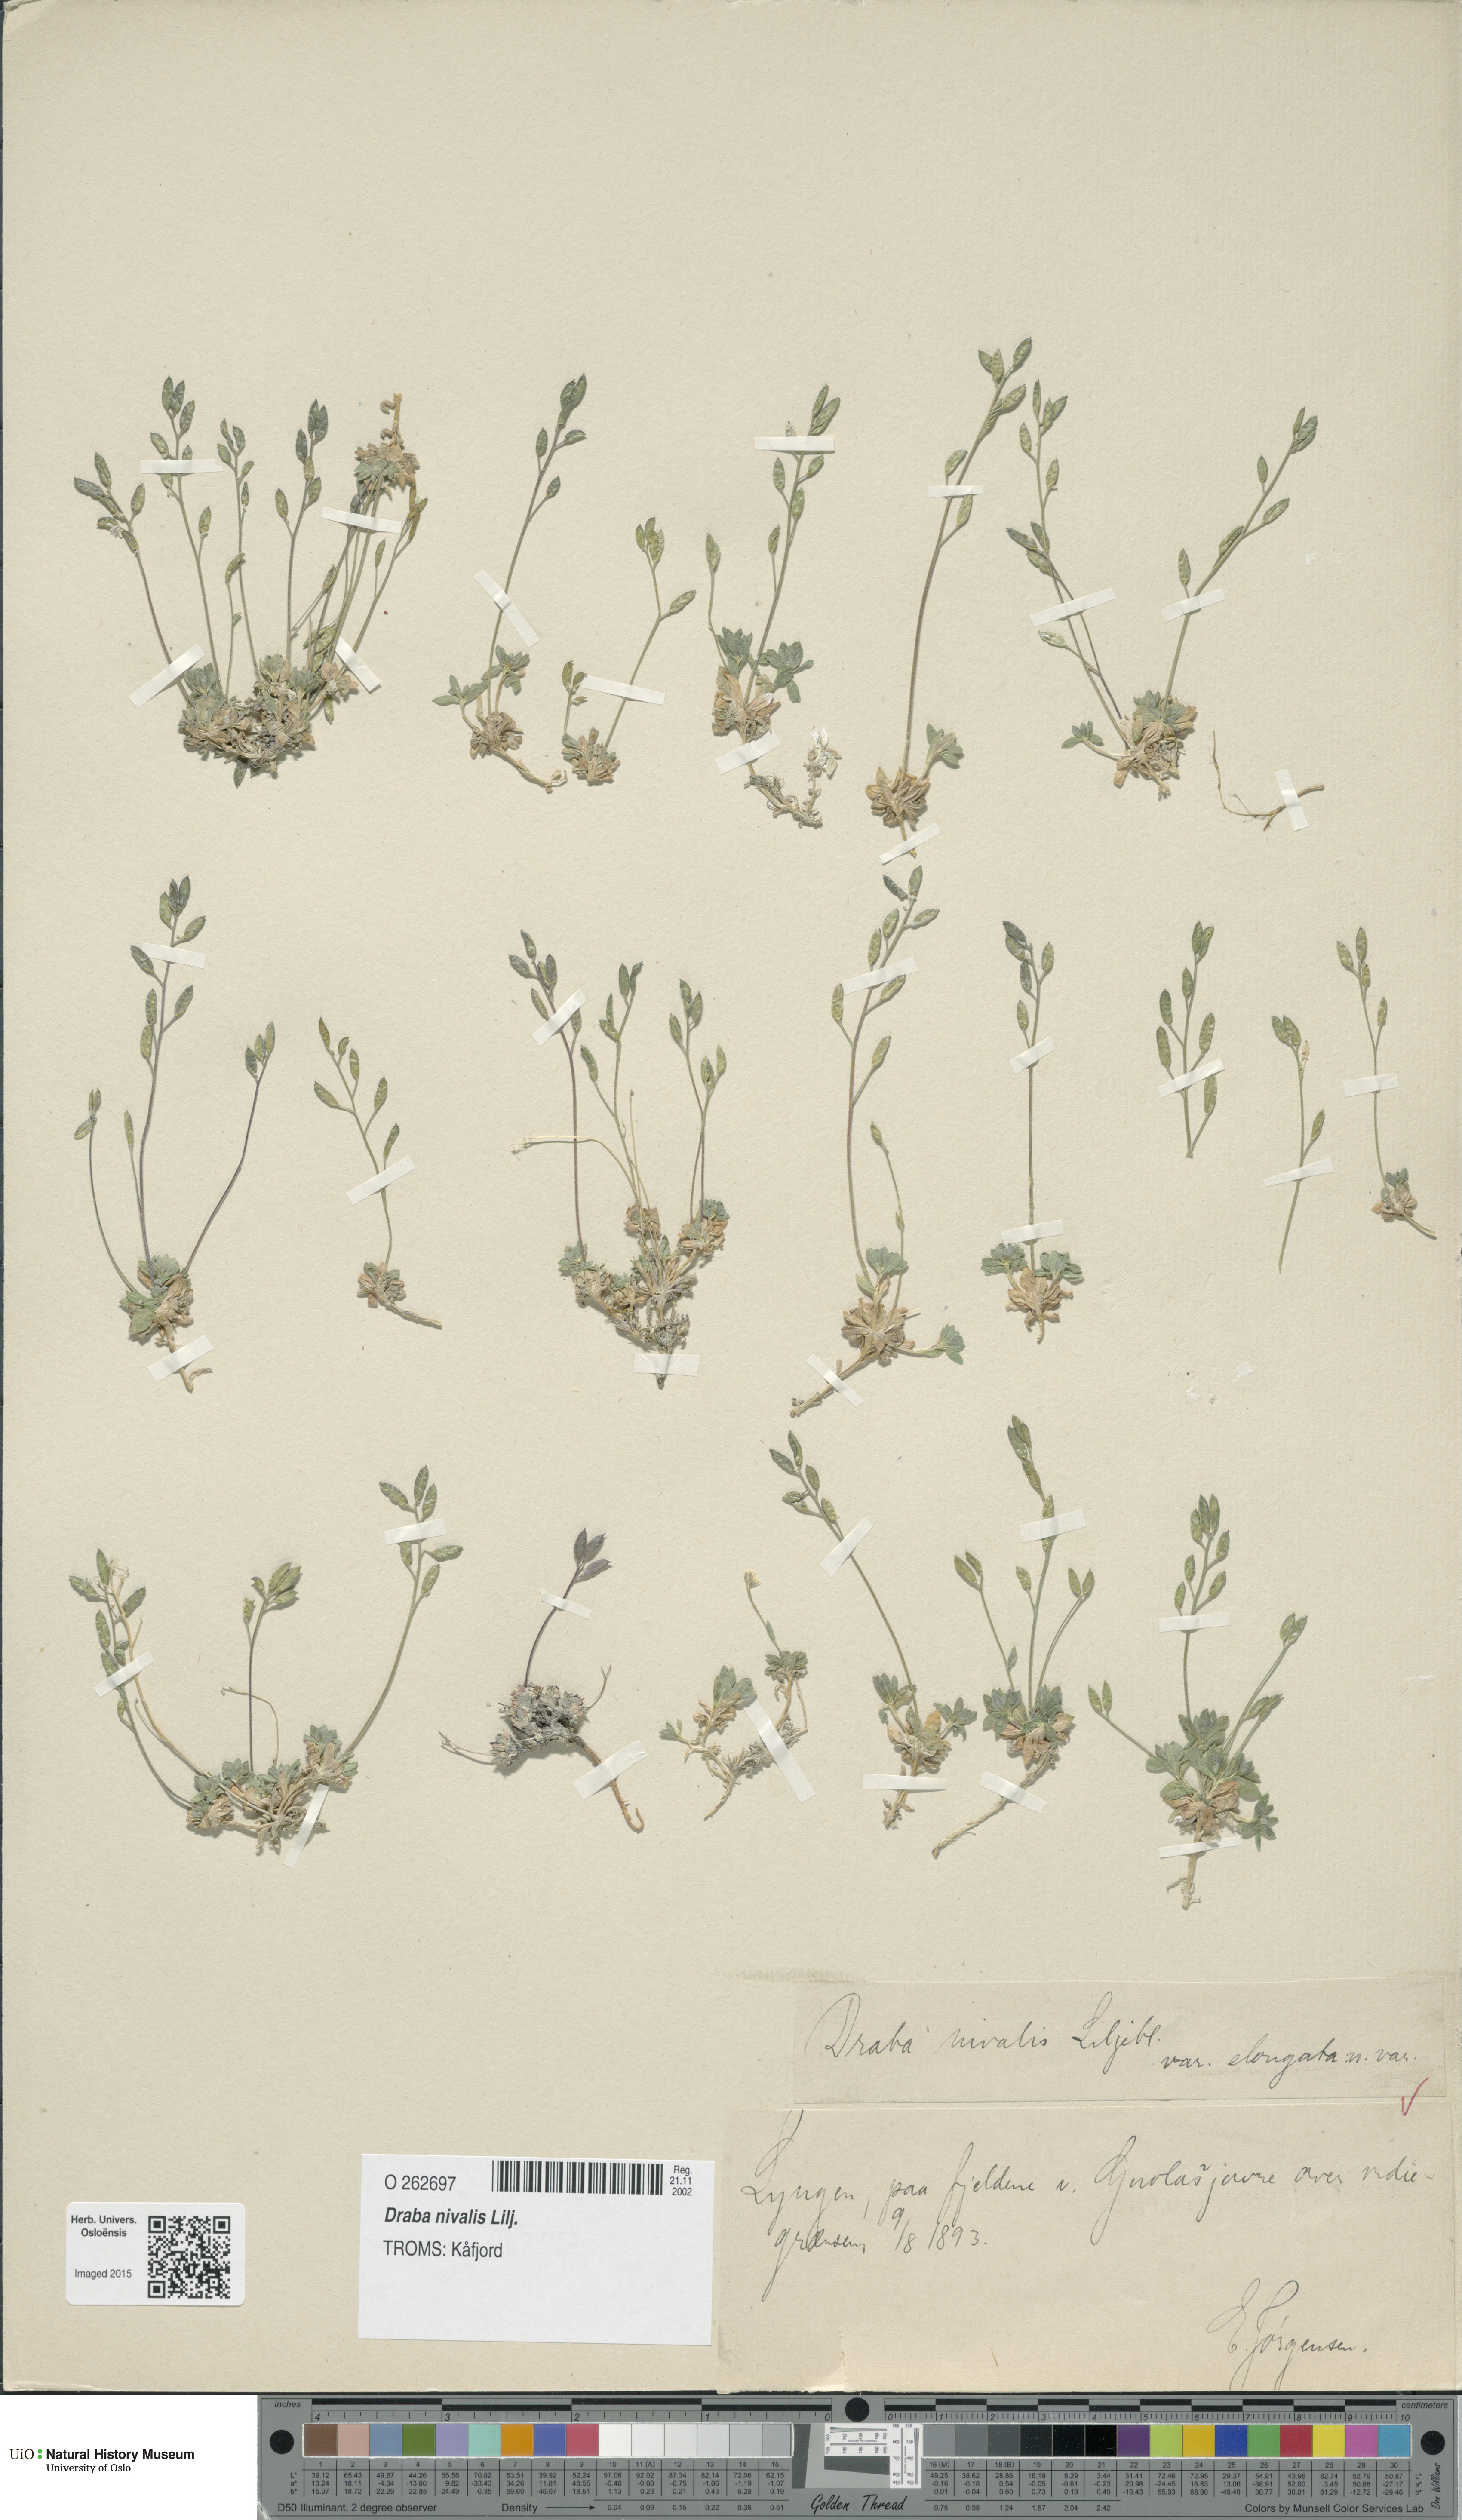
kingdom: Plantae
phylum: Tracheophyta
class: Magnoliopsida
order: Brassicales
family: Brassicaceae
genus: Draba
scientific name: Draba nivalis
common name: Snow draba
